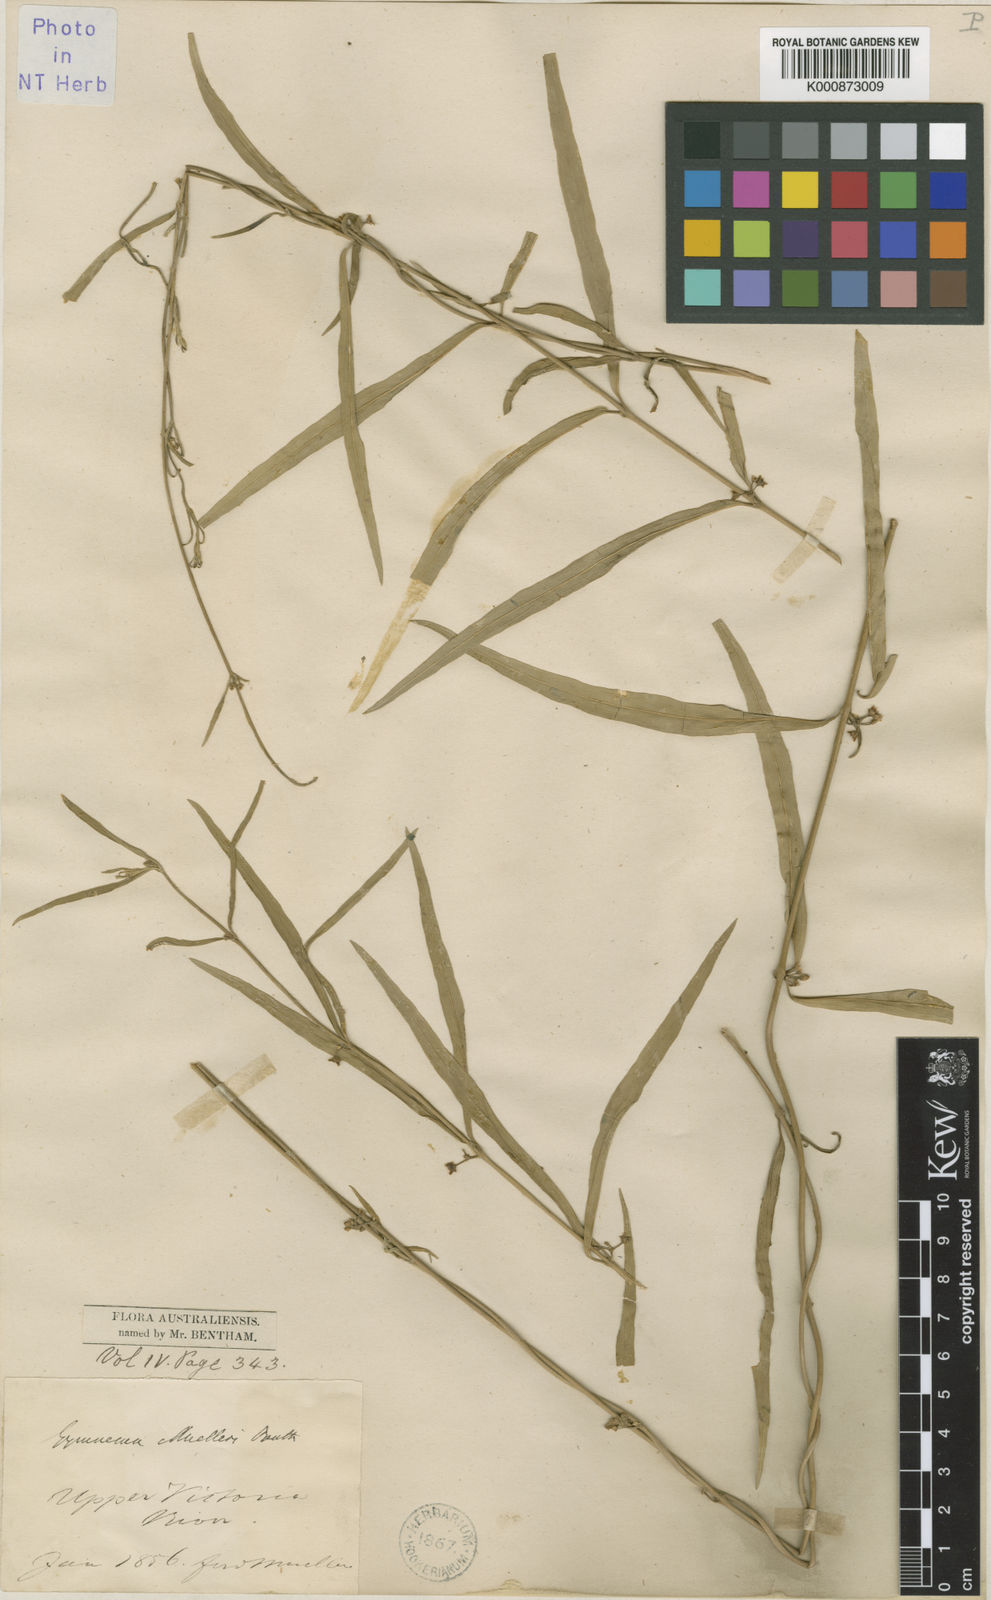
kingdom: Plantae
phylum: Tracheophyta
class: Magnoliopsida
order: Gentianales
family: Apocynaceae
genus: Gymnema
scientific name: Gymnema muelleri
